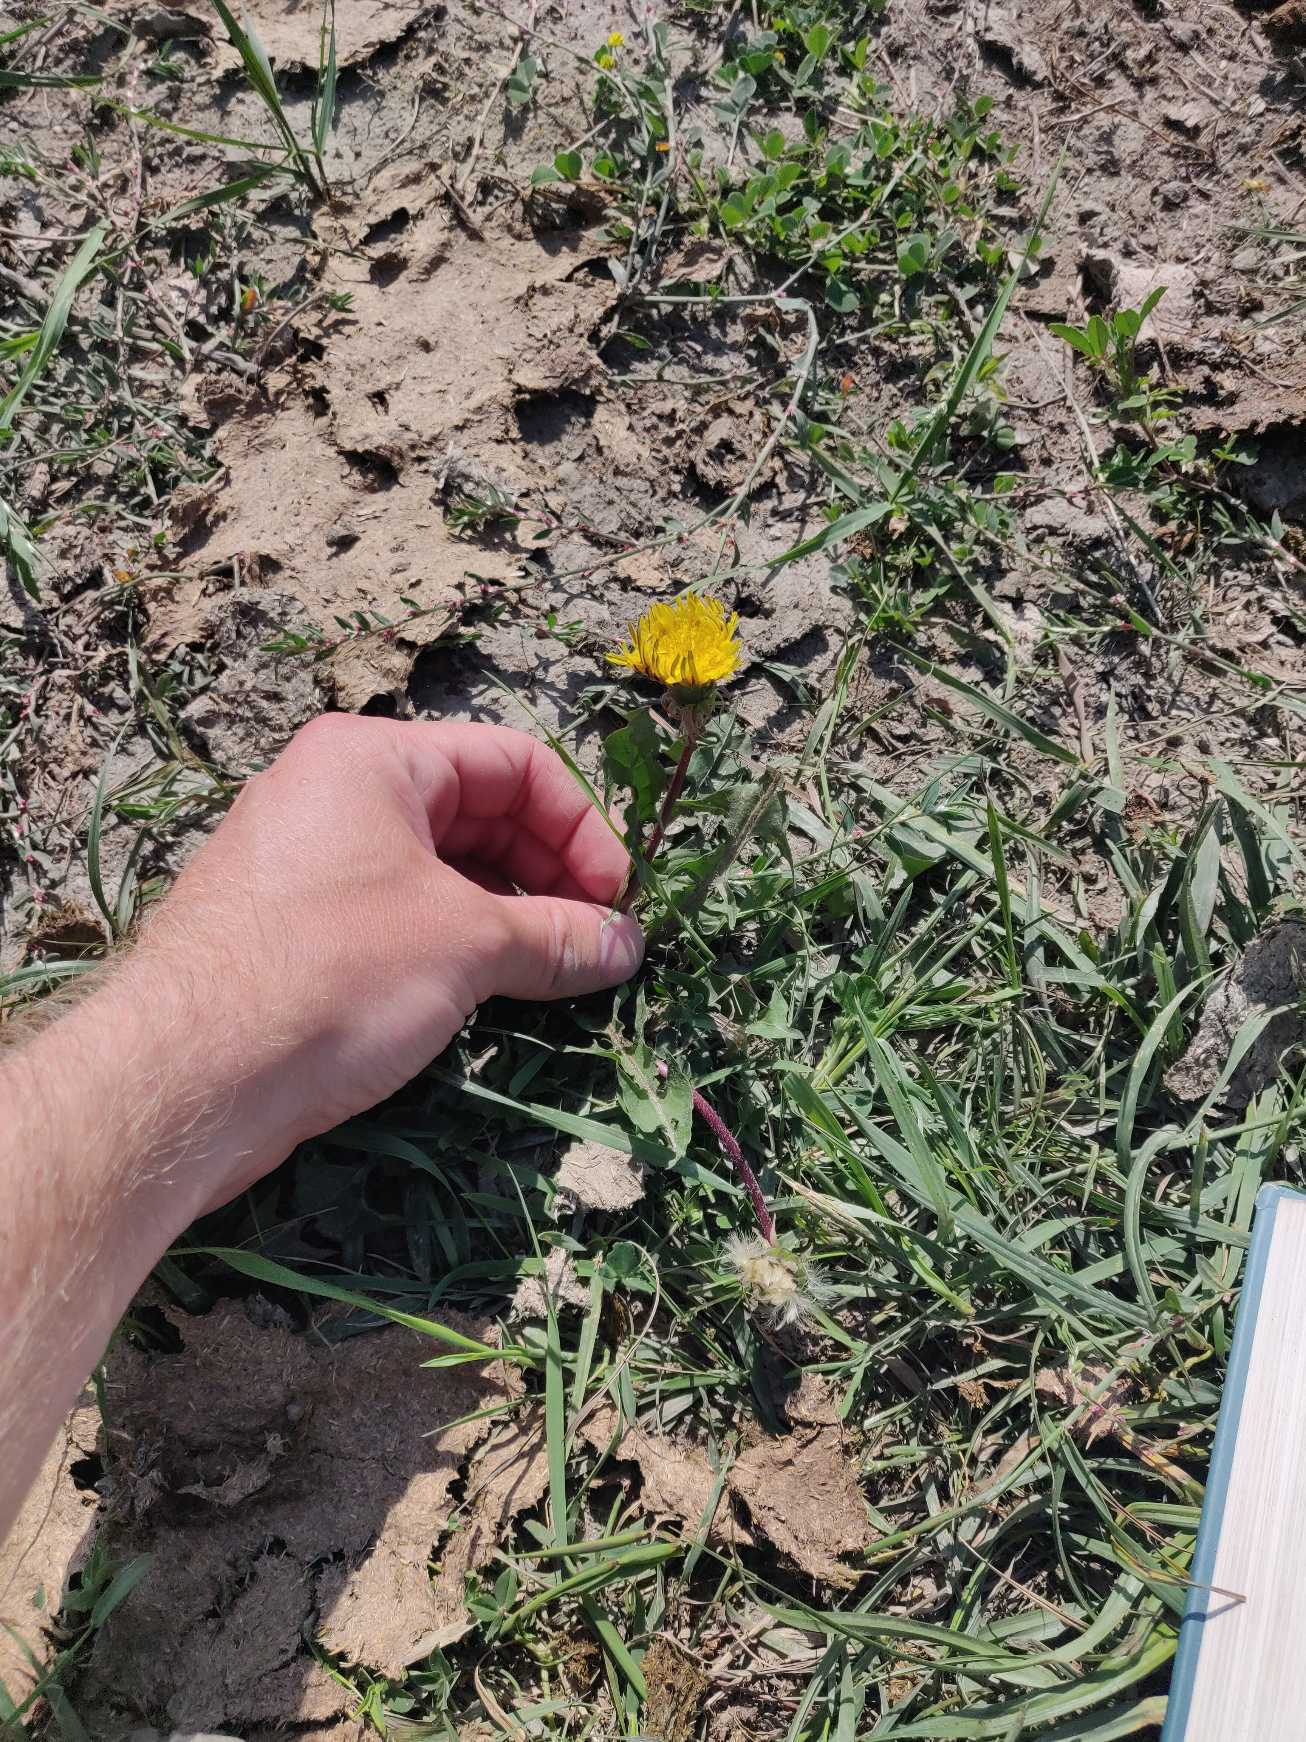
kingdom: Plantae
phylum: Tracheophyta
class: Magnoliopsida
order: Asterales
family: Asteraceae
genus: Taraxacum
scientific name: Taraxacum
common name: Mælkebøtteslægten
